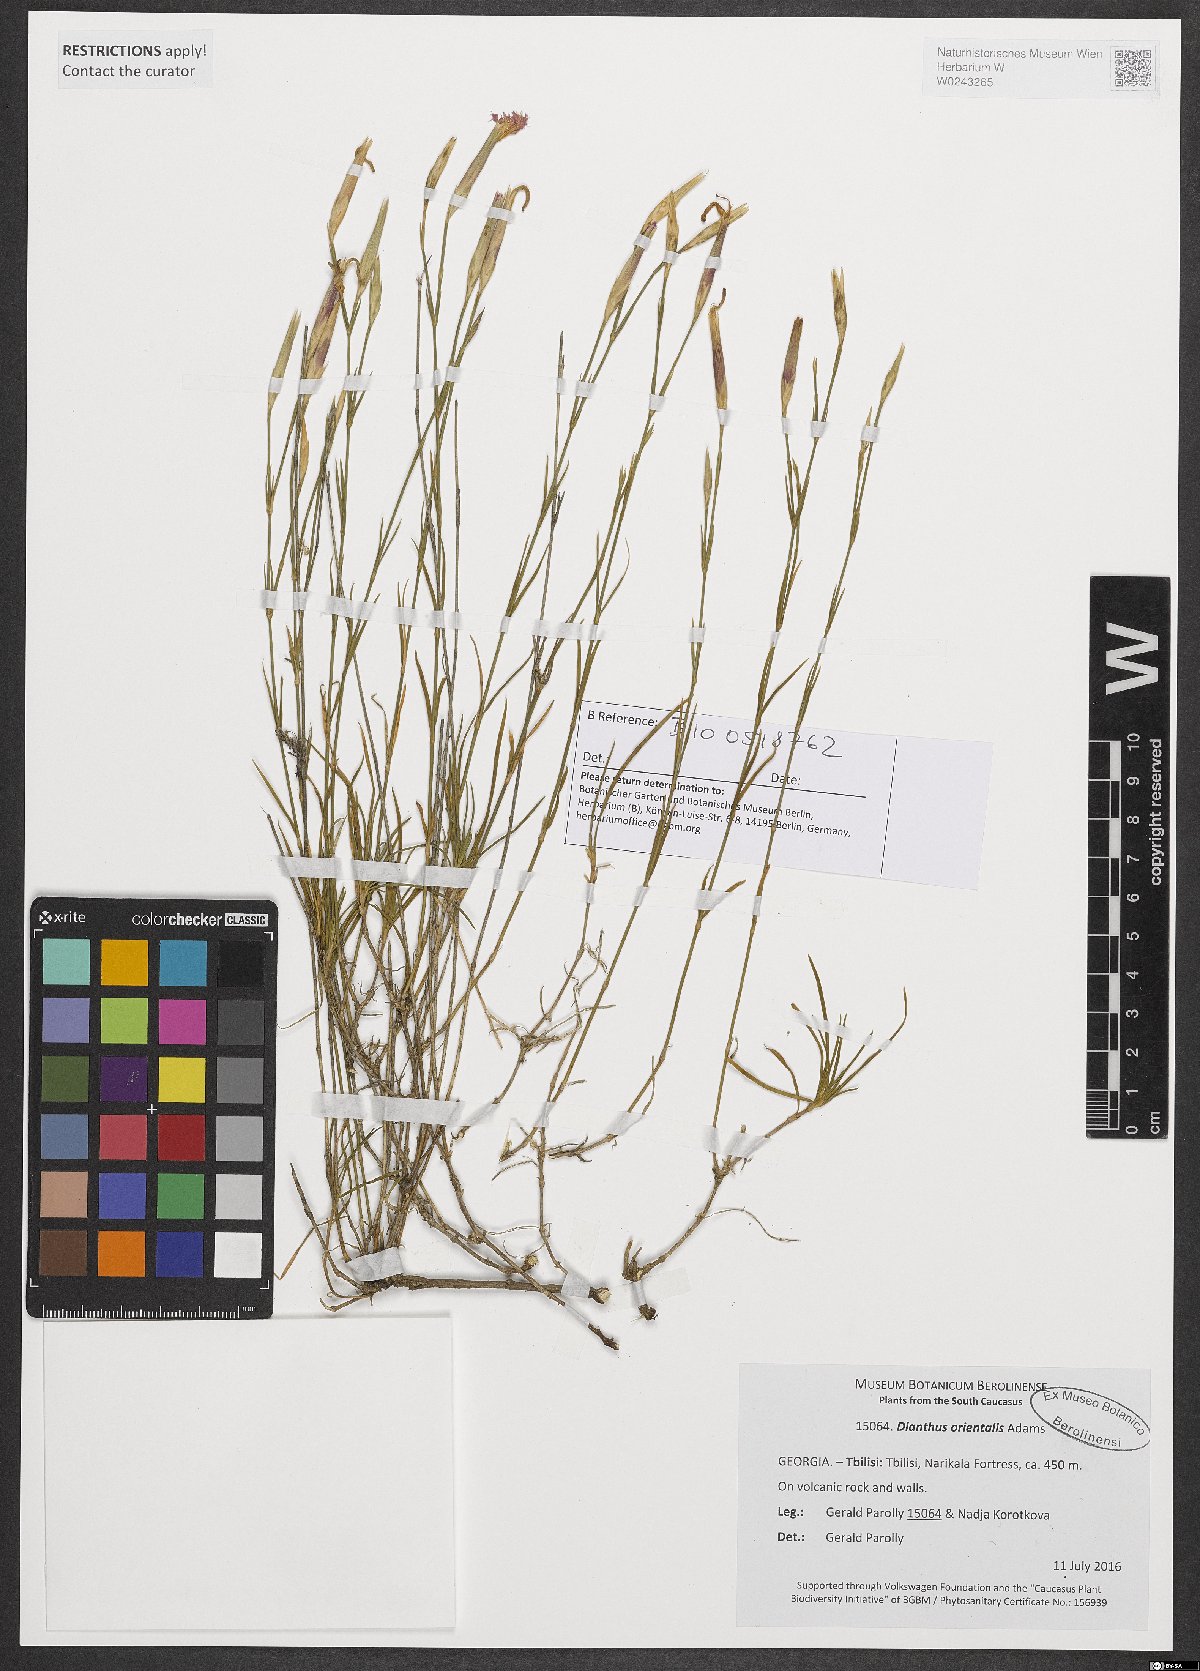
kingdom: Plantae
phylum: Tracheophyta
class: Magnoliopsida
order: Caryophyllales
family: Caryophyllaceae
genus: Dianthus
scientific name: Dianthus orientalis
